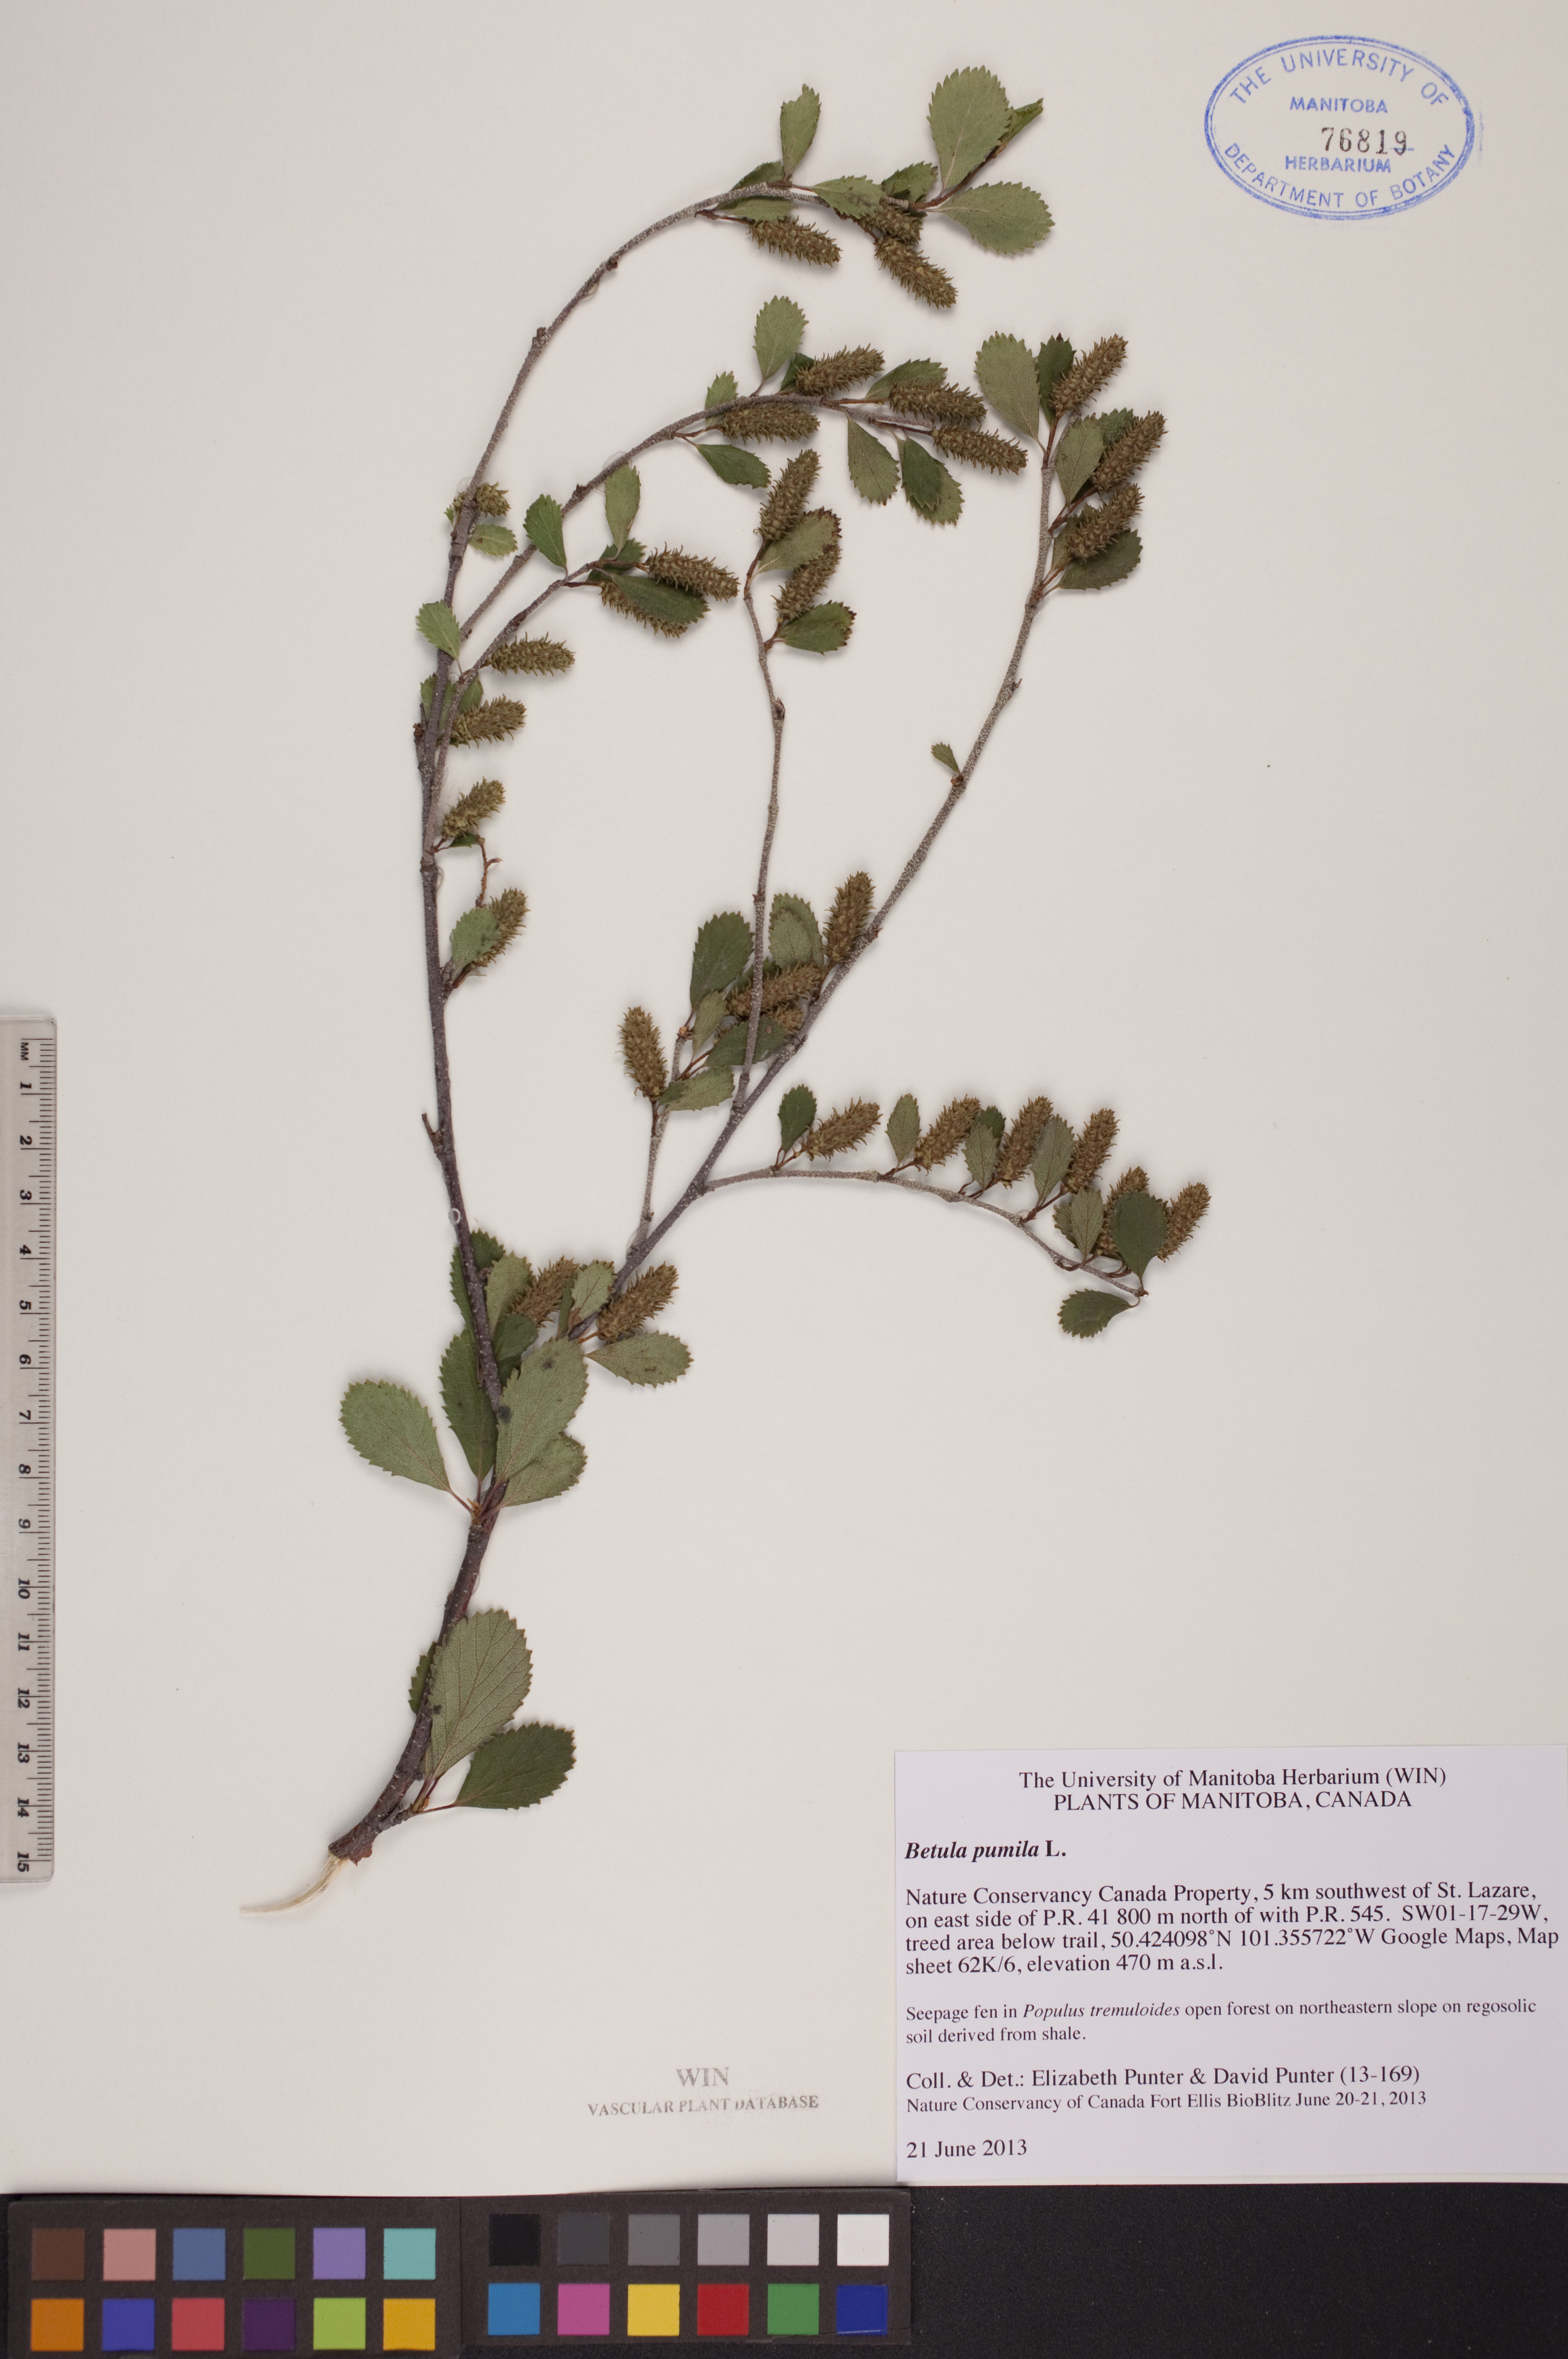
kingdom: Plantae
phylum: Tracheophyta
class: Magnoliopsida
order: Fagales
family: Betulaceae
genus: Betula
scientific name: Betula pumila
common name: Bog birch
